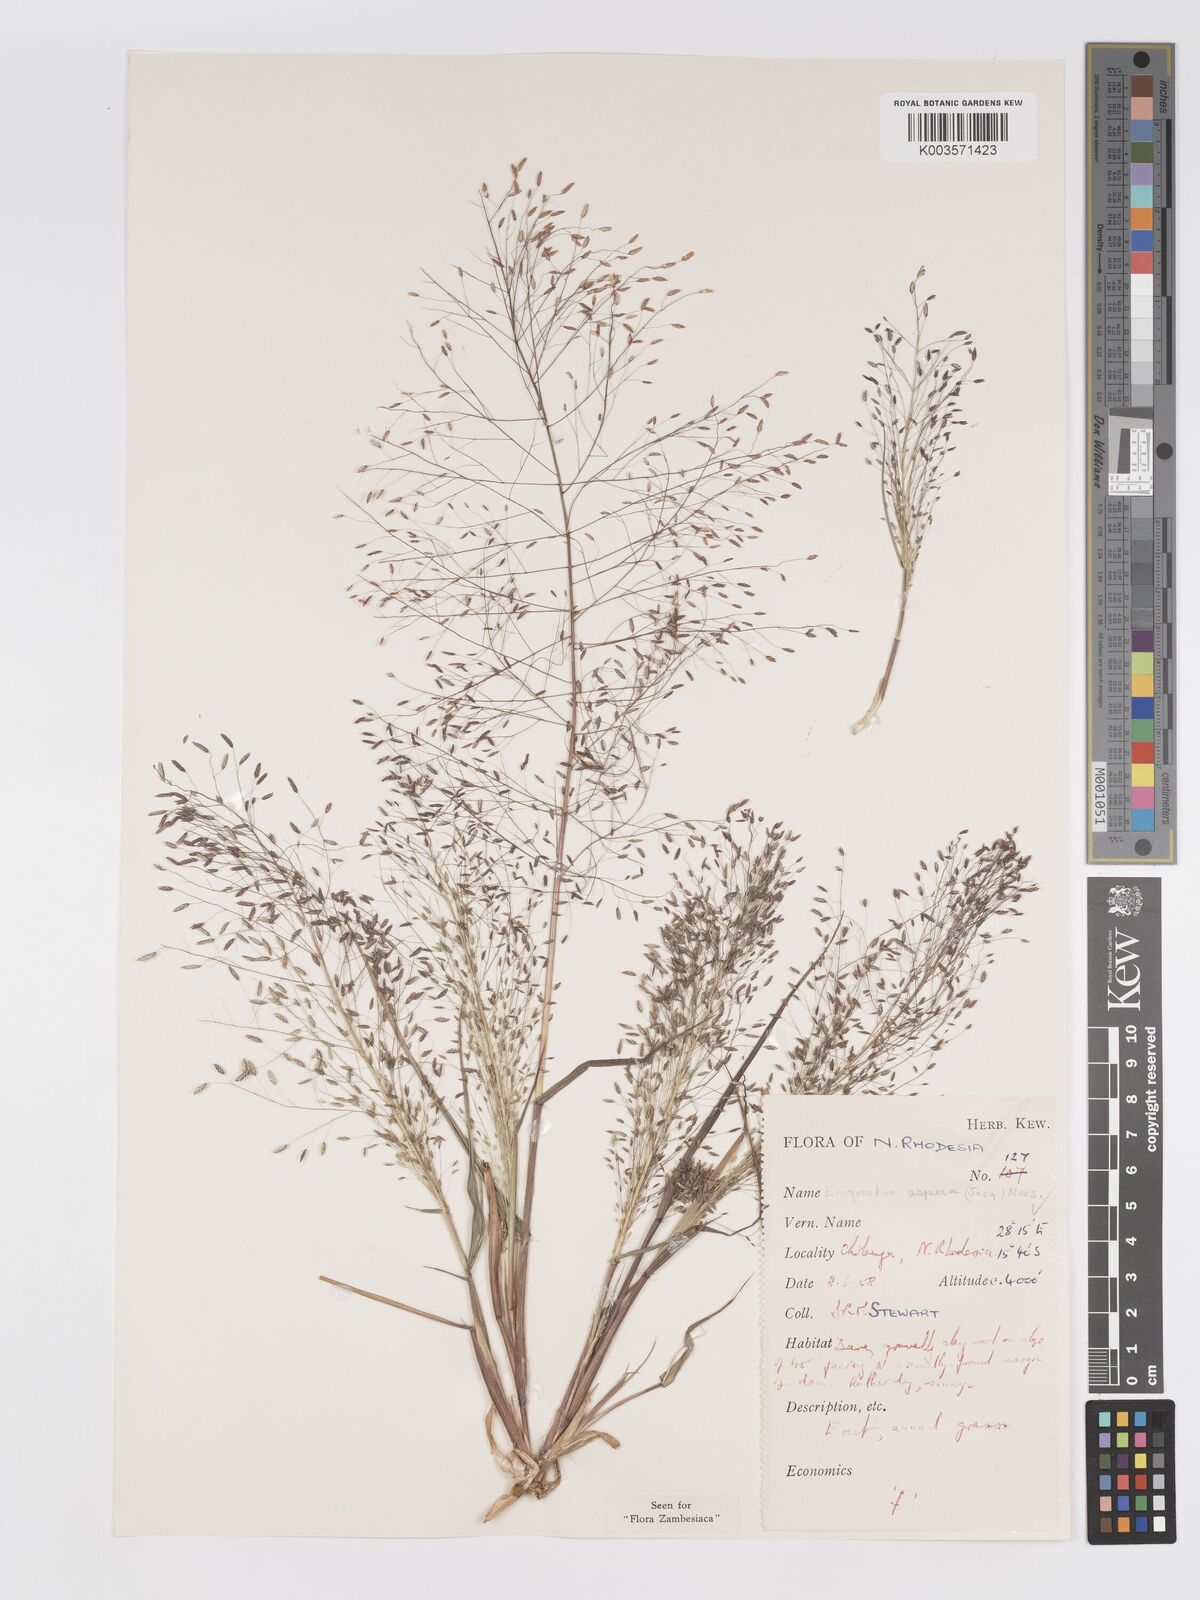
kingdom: Plantae
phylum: Tracheophyta
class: Liliopsida
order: Poales
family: Poaceae
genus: Eragrostis
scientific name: Eragrostis aspera
